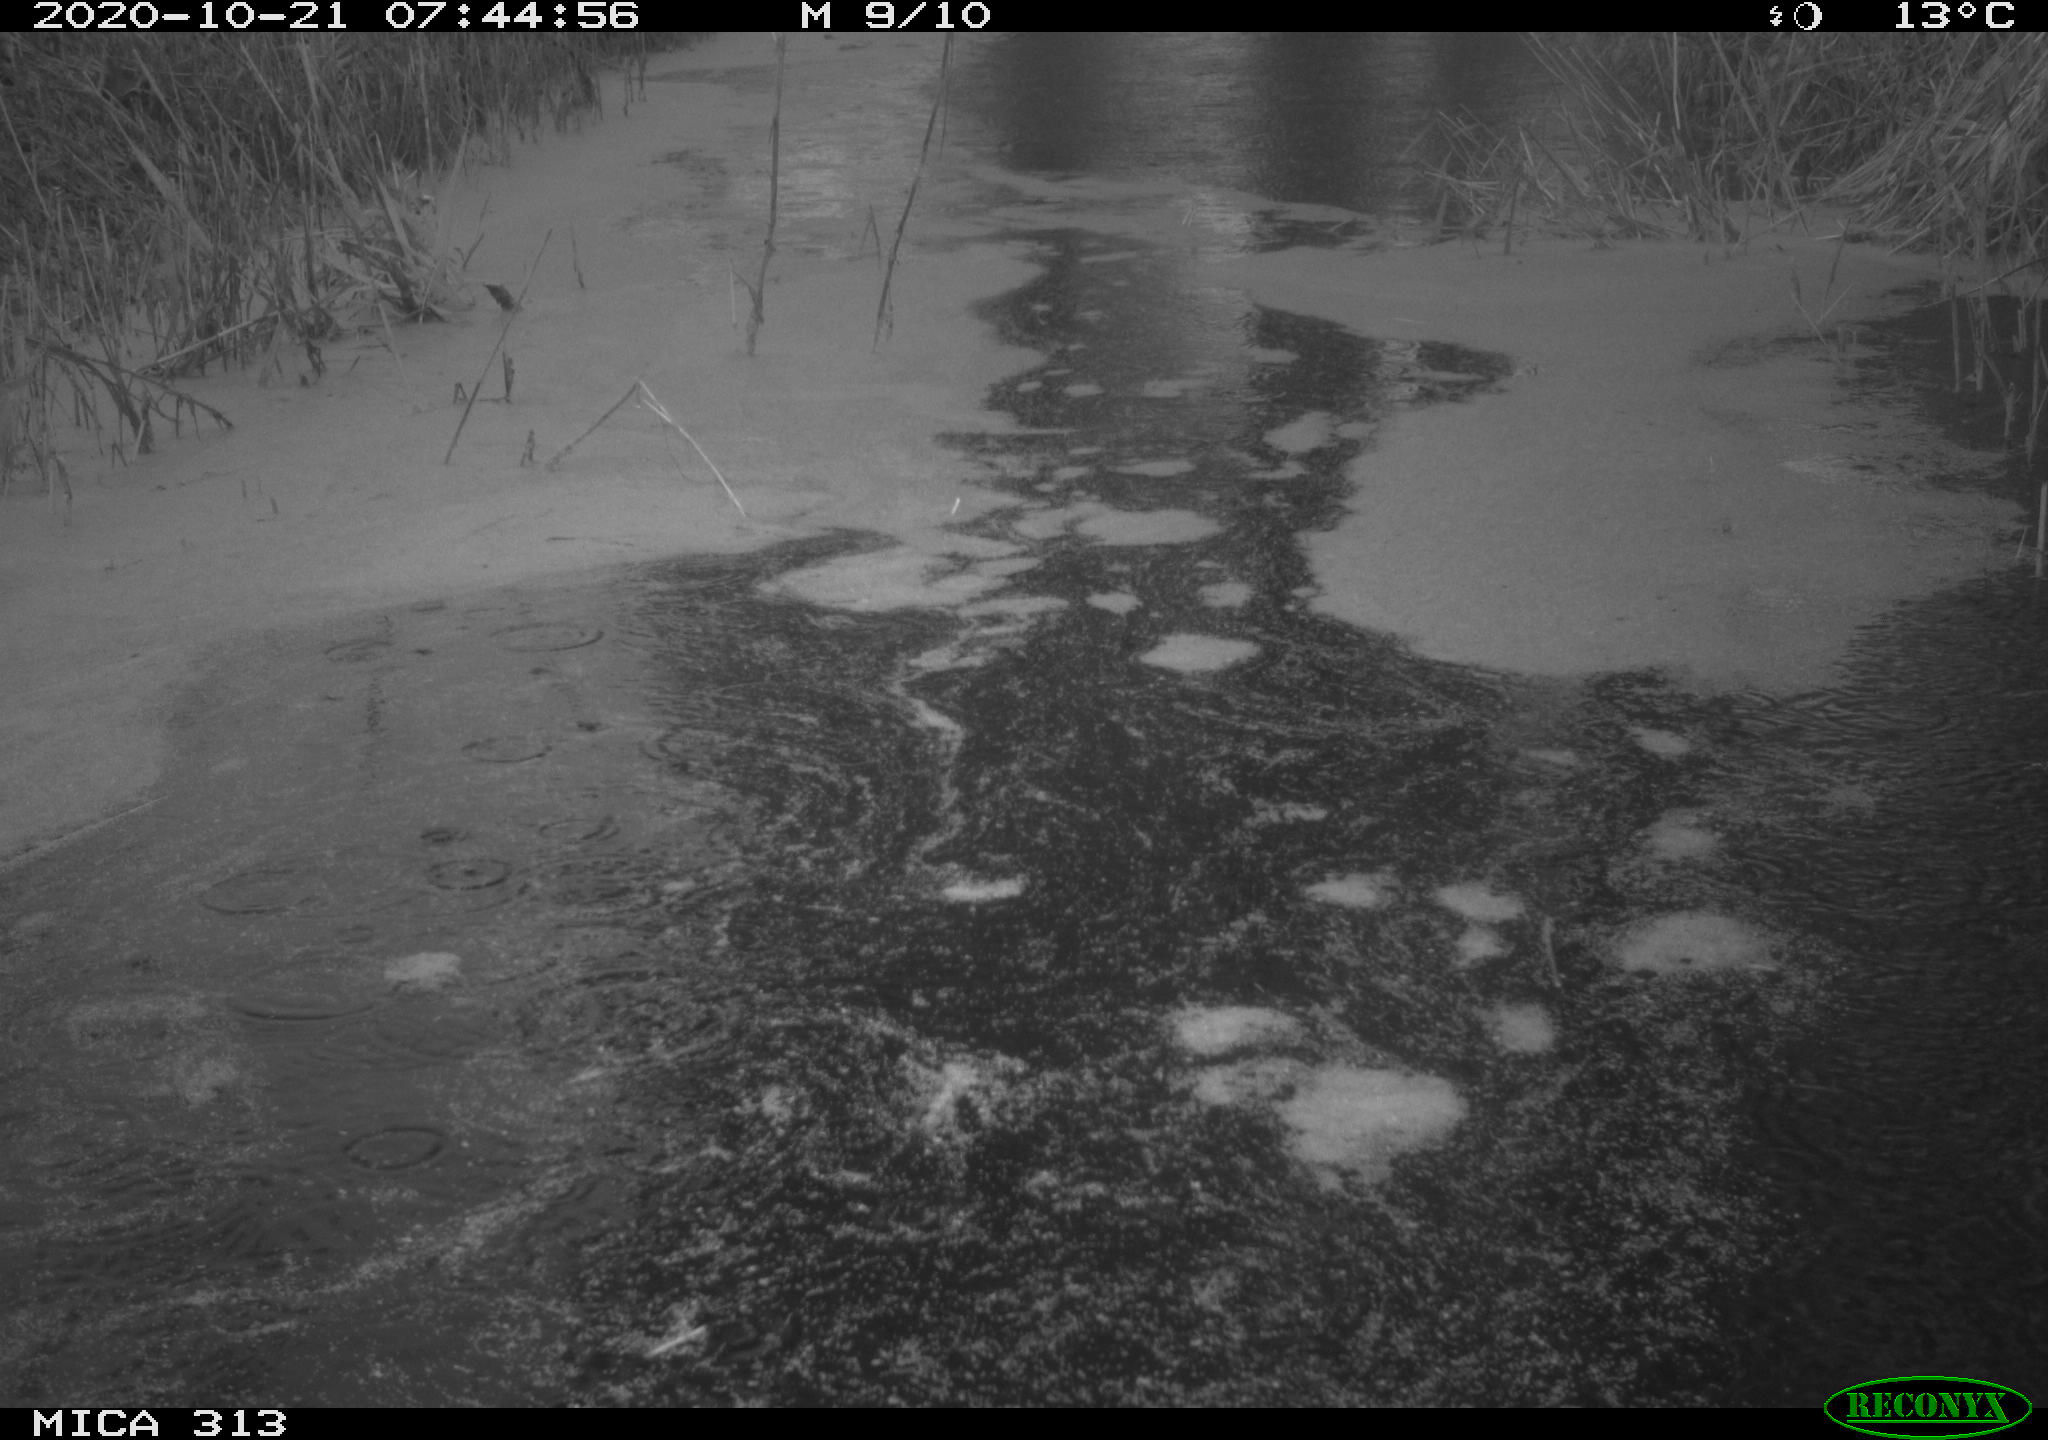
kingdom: Animalia
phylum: Chordata
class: Aves
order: Gruiformes
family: Rallidae
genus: Fulica
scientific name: Fulica atra
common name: Eurasian coot
